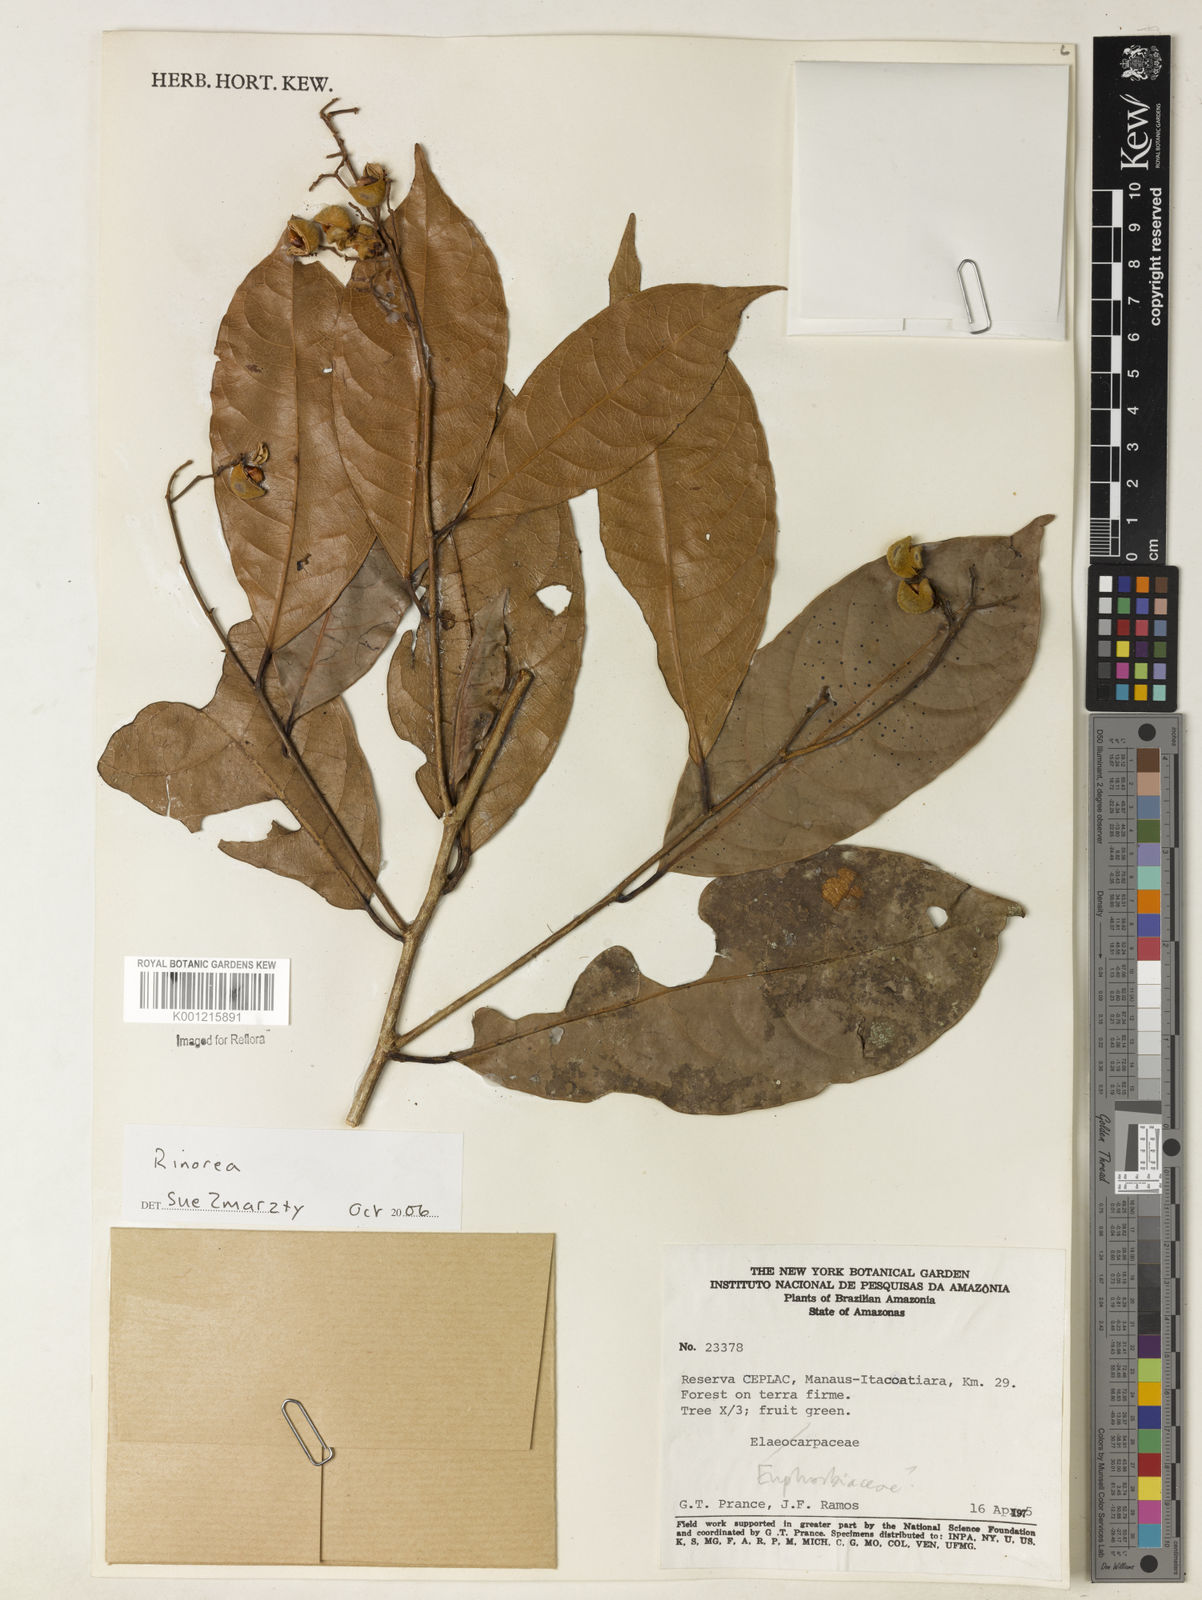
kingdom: Plantae
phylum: Tracheophyta
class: Magnoliopsida
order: Malpighiales
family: Violaceae
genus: Rinorea
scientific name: Rinorea
